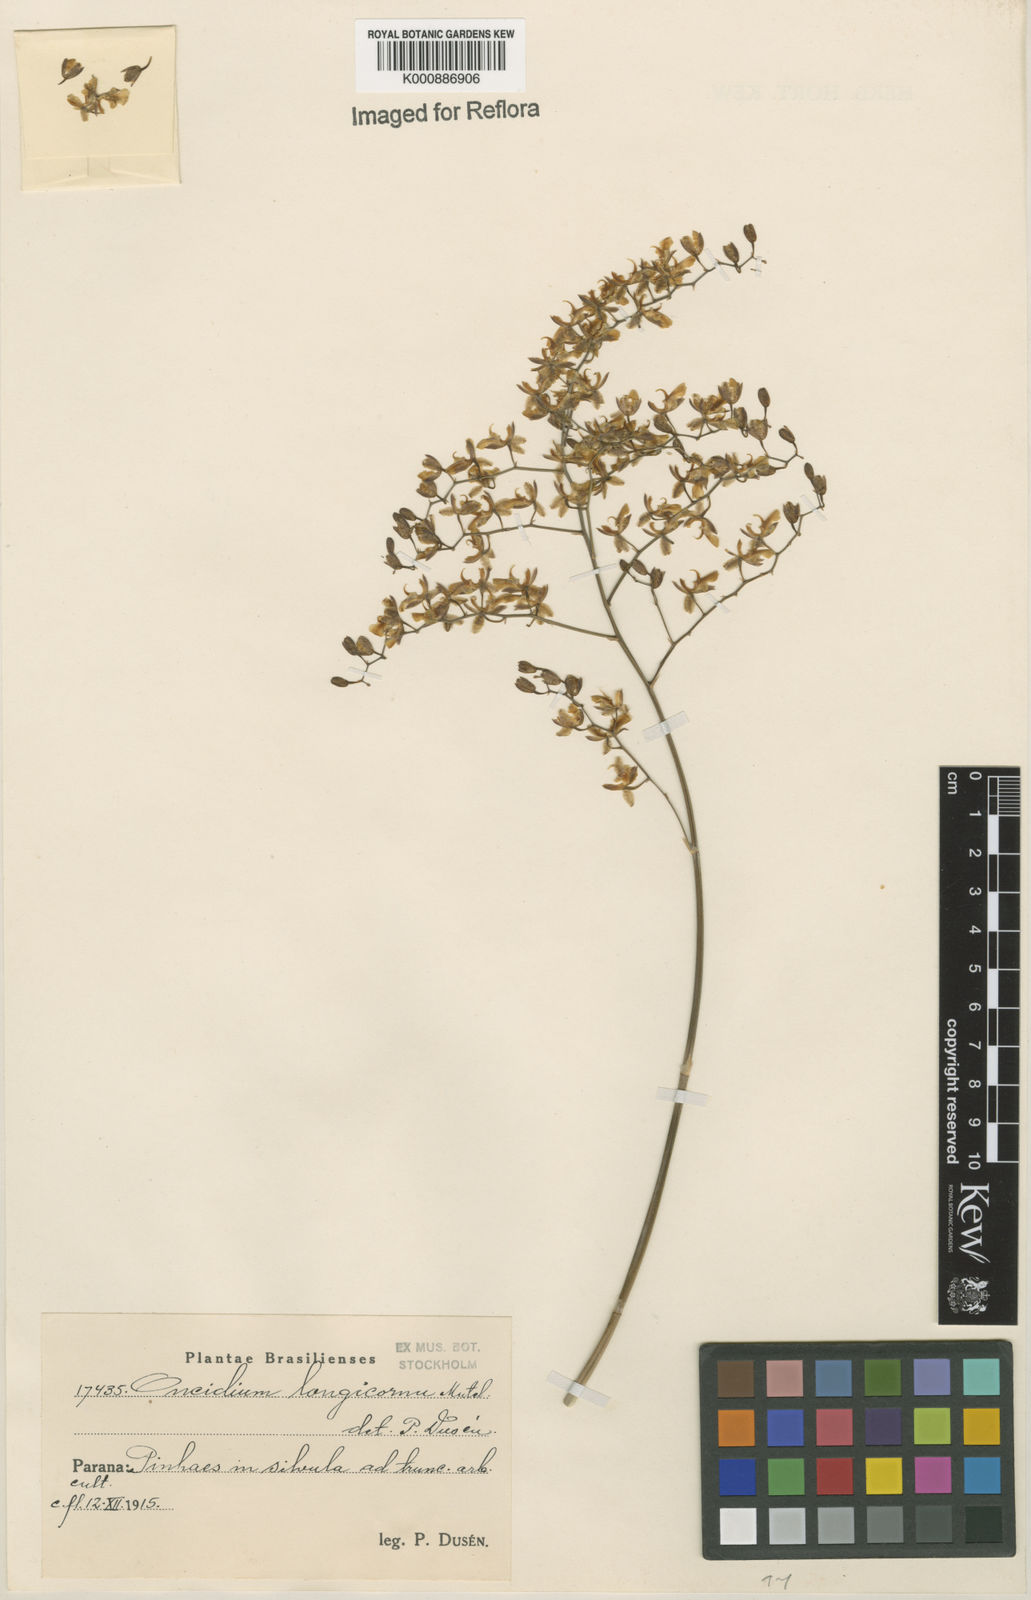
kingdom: Plantae
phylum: Tracheophyta
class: Liliopsida
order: Asparagales
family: Orchidaceae
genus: Gomesa
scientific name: Gomesa florida
